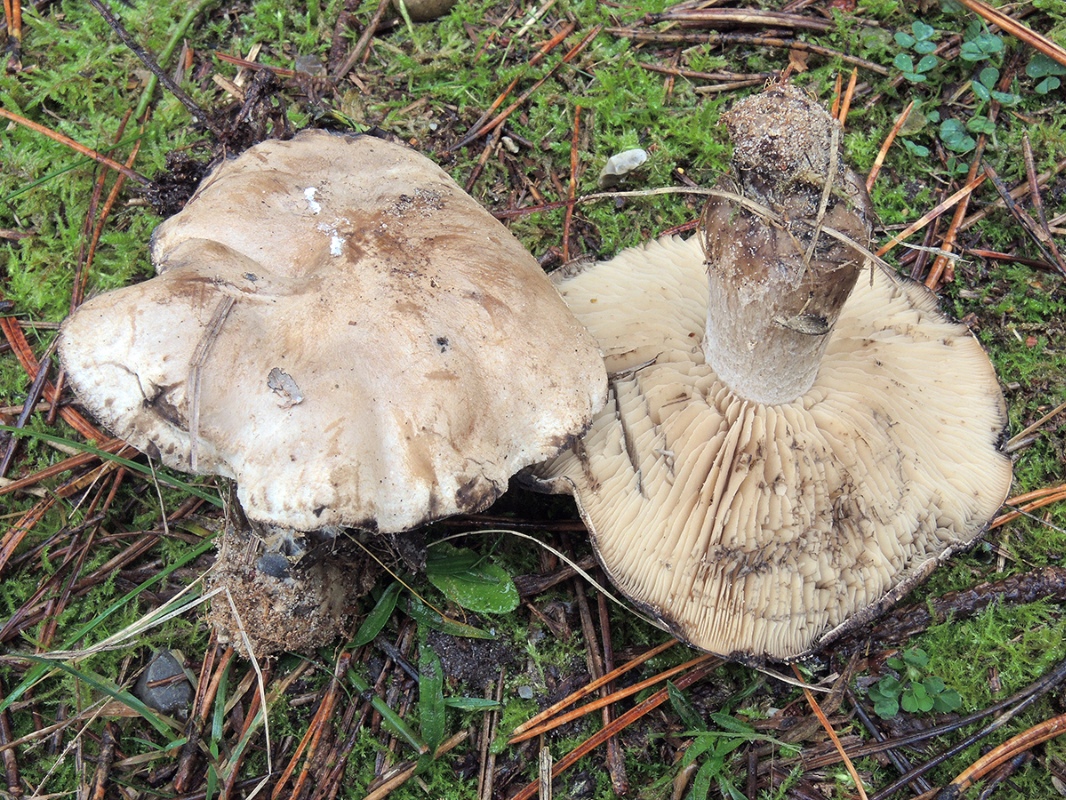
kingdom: Fungi
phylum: Basidiomycota
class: Agaricomycetes
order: Agaricales
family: Lyophyllaceae
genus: Lyophyllum
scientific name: Lyophyllum semitale
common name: sværtende gråblad
